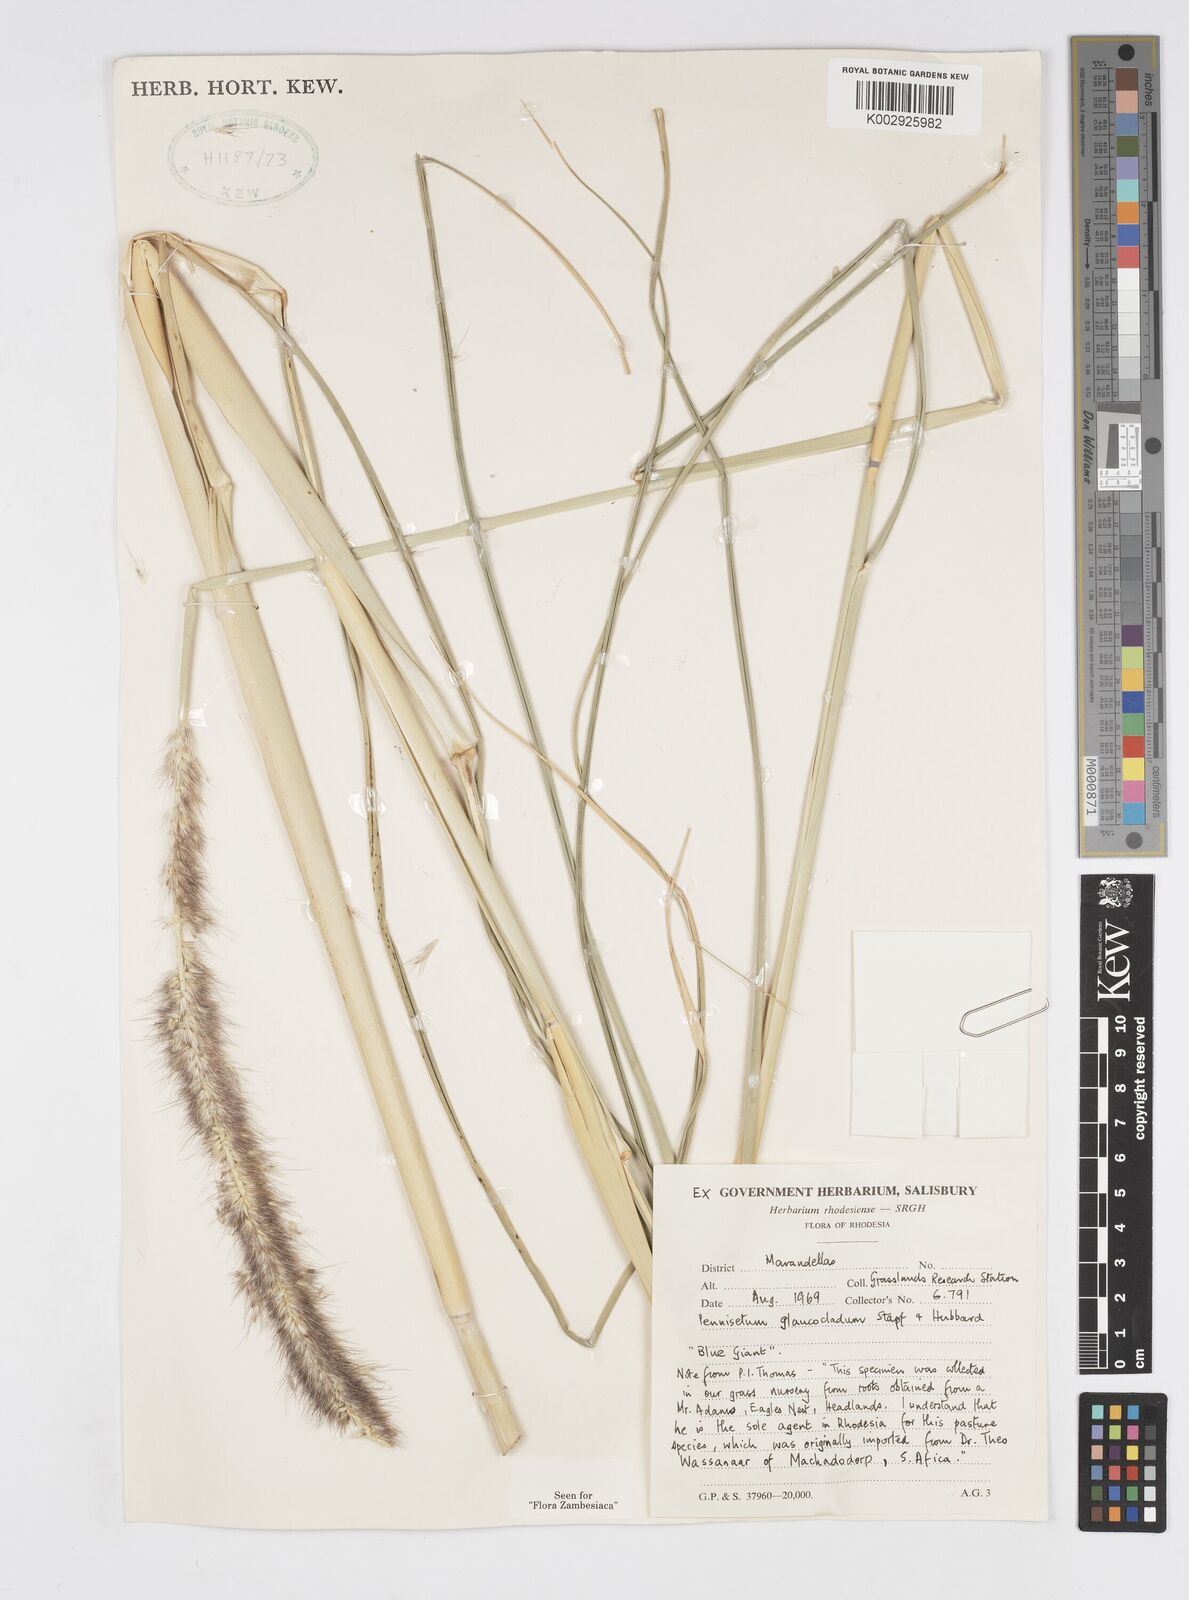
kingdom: Plantae
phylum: Tracheophyta
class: Liliopsida
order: Poales
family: Poaceae
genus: Cenchrus
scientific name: Cenchrus caudatus
